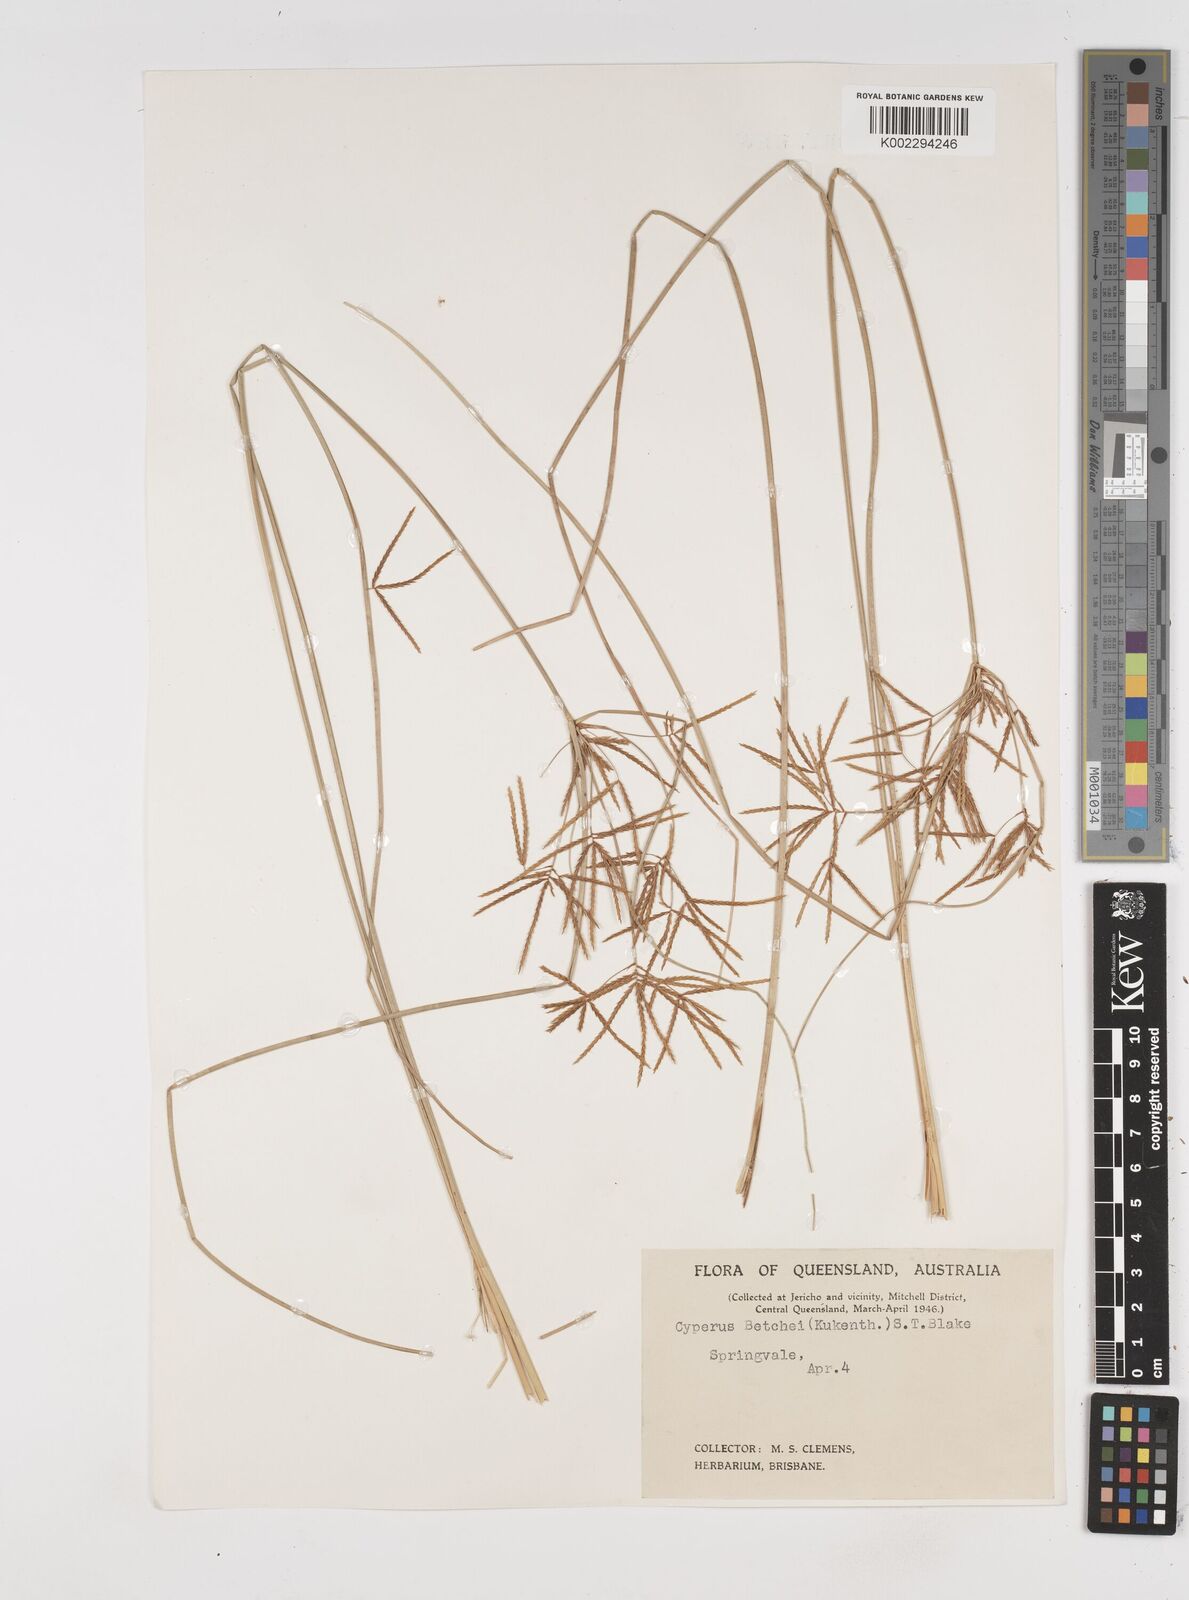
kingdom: Plantae
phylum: Tracheophyta
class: Liliopsida
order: Poales
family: Cyperaceae
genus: Cyperus
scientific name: Cyperus betchei
